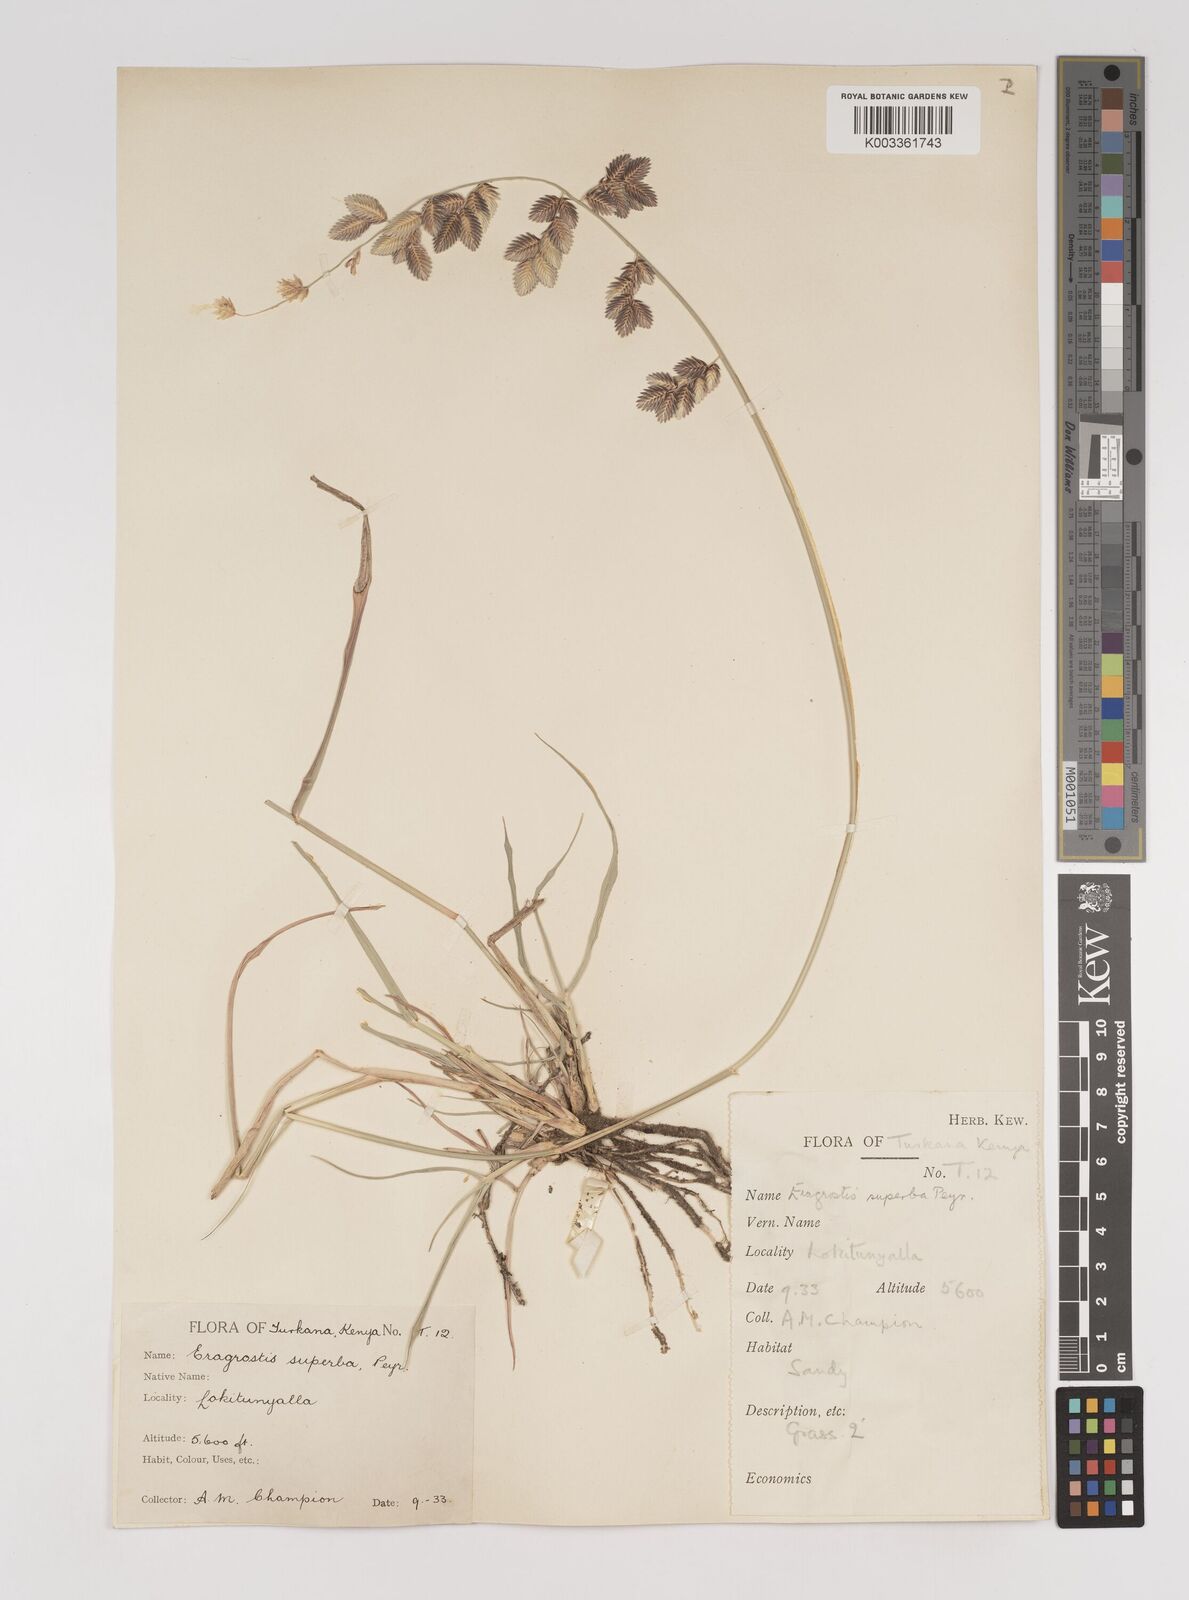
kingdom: Plantae
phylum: Tracheophyta
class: Liliopsida
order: Poales
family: Poaceae
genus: Eragrostis
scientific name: Eragrostis superba
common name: Wilman lovegrass
